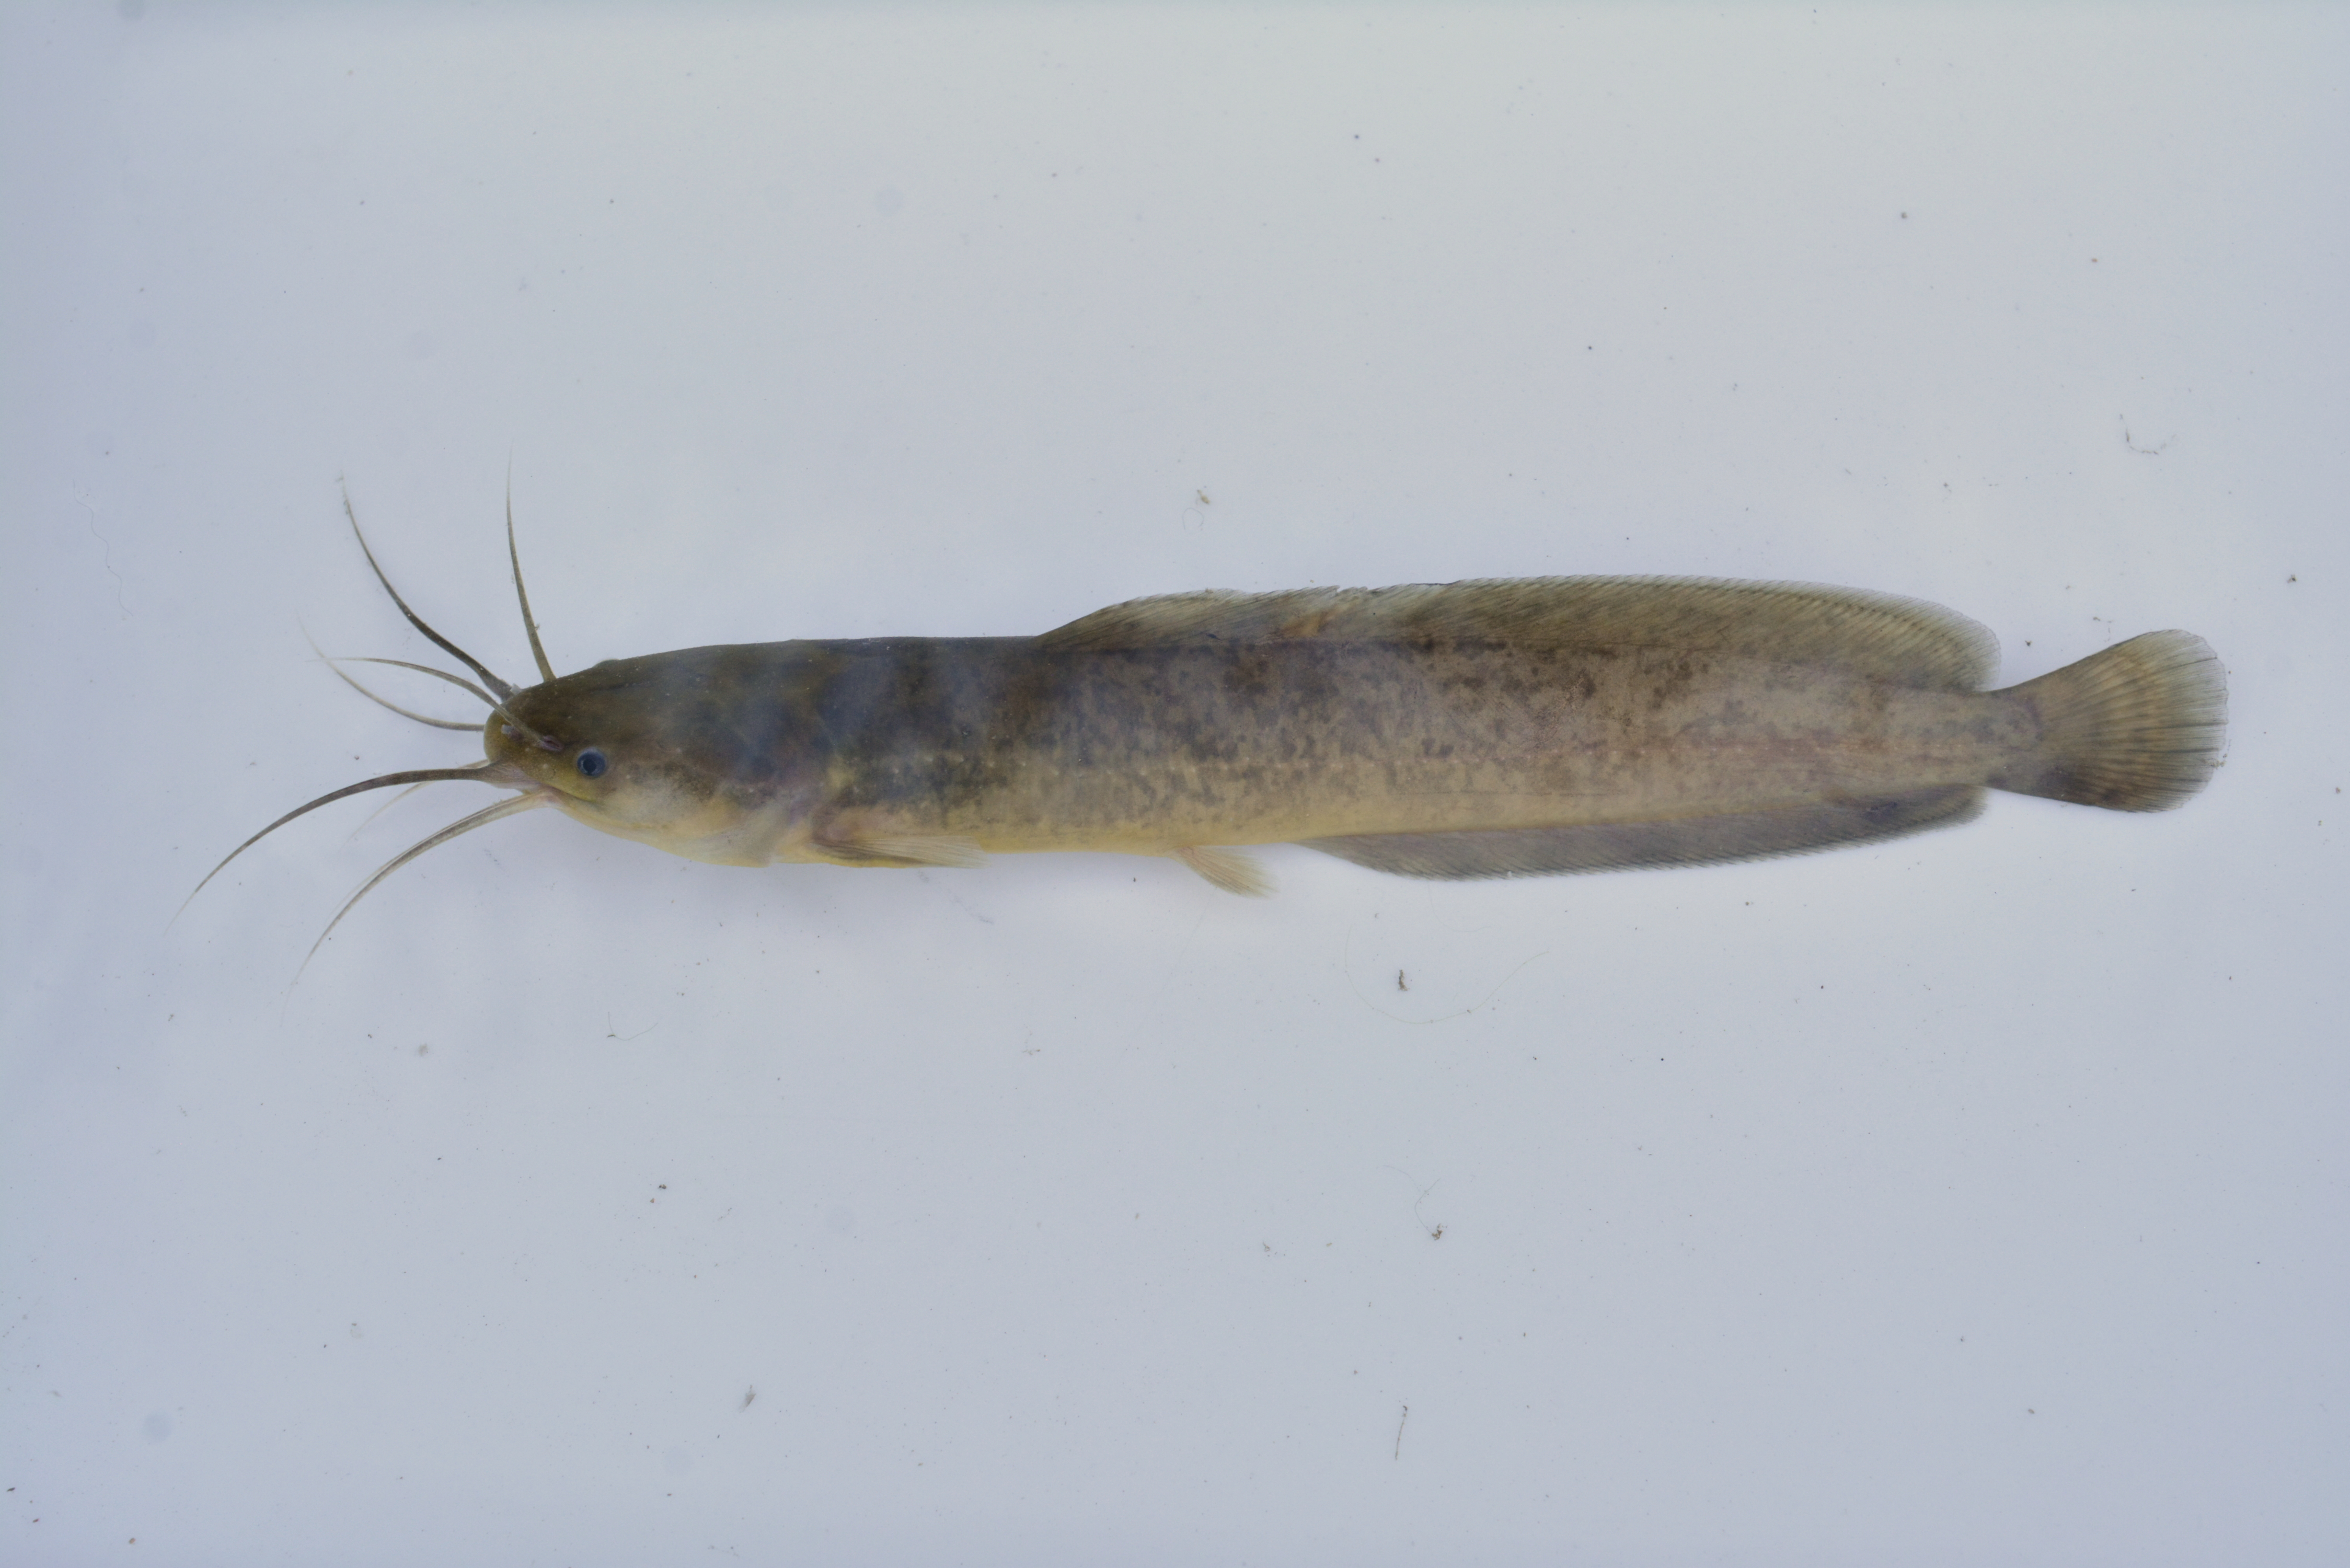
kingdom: Animalia
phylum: Chordata
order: Siluriformes
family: Clariidae
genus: Clarias
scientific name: Clarias liocephalus
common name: Smooth-head catfish
